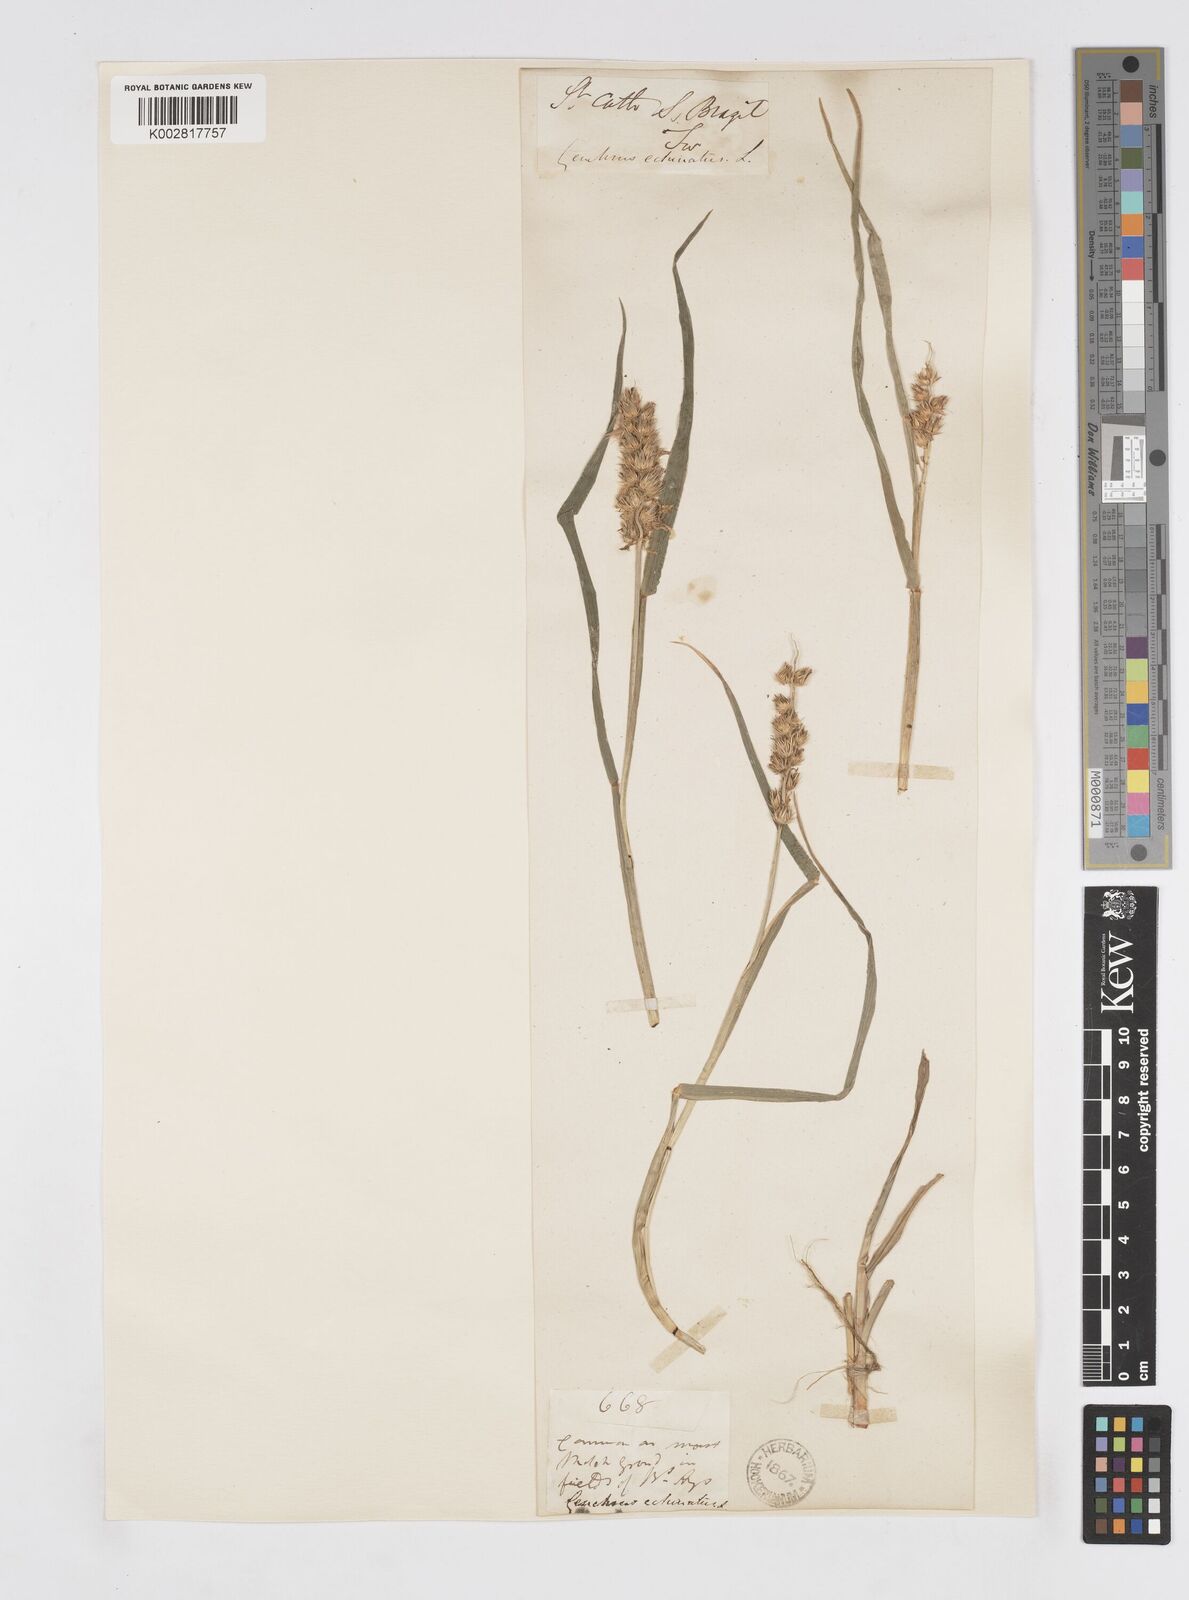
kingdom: Plantae
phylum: Tracheophyta
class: Liliopsida
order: Poales
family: Poaceae
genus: Cenchrus
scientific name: Cenchrus
